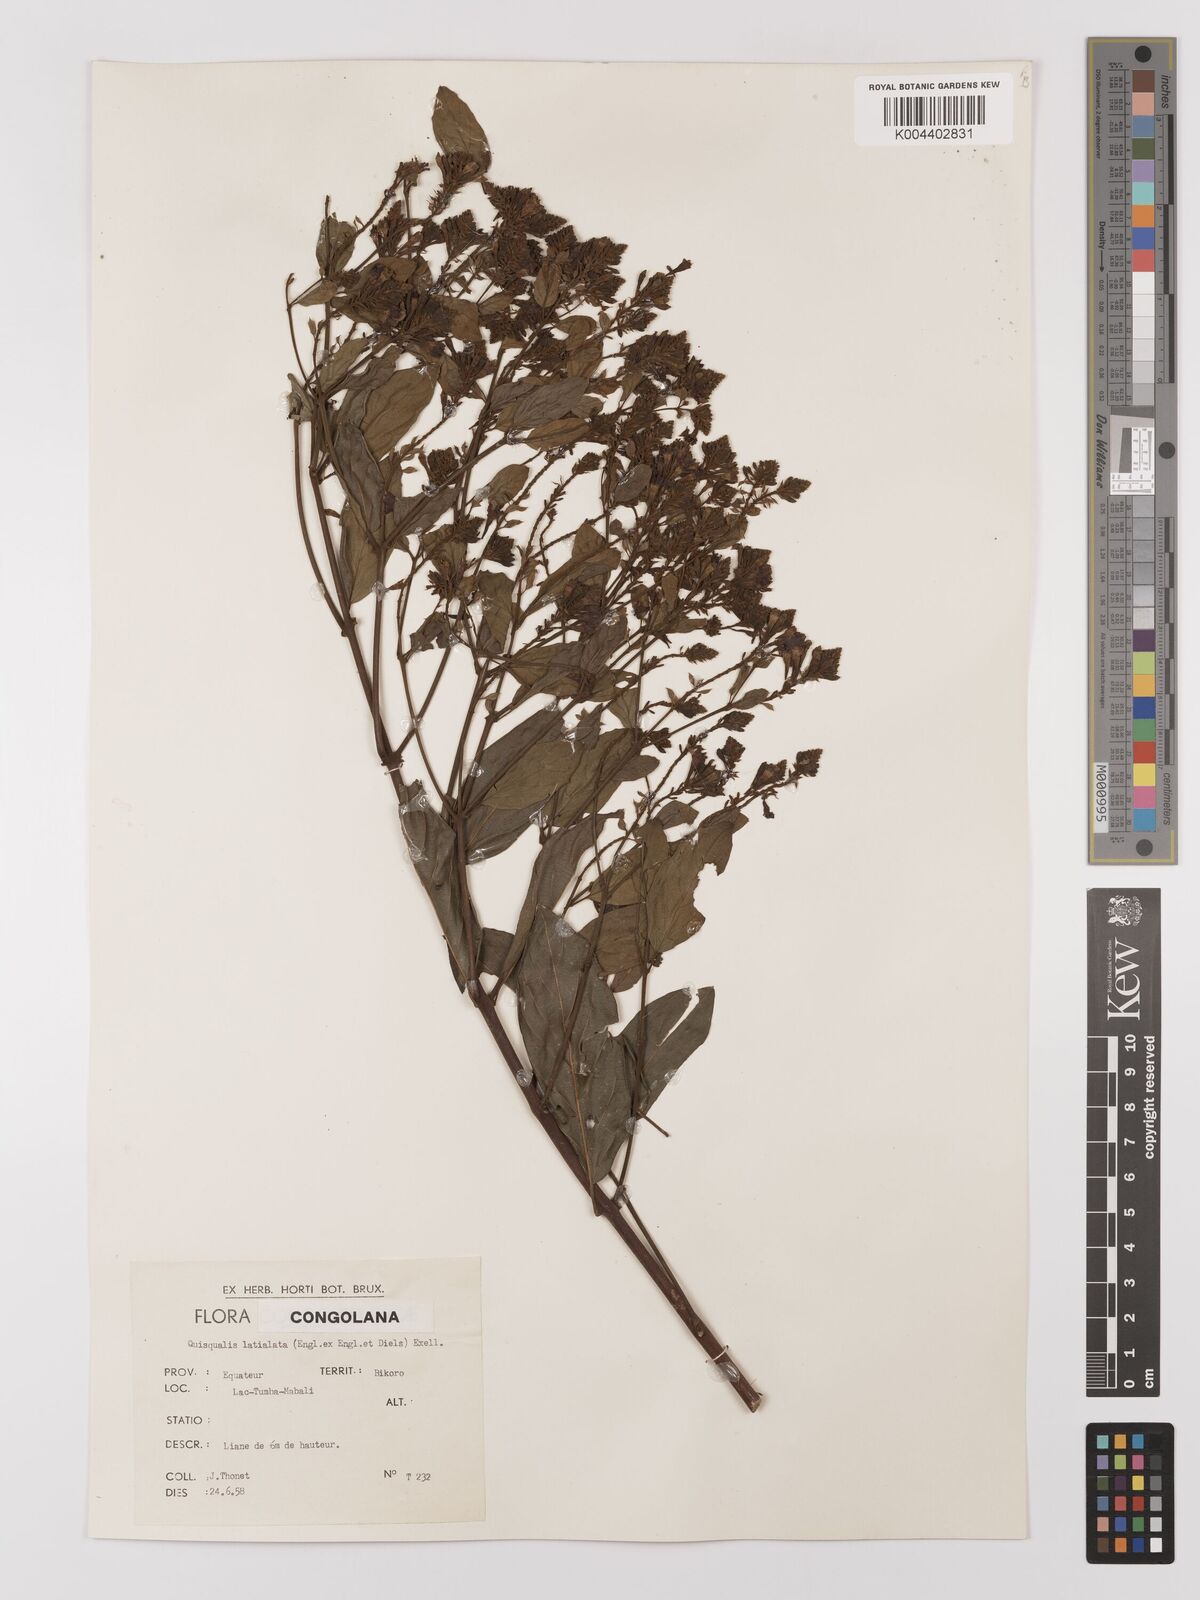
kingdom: Plantae
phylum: Tracheophyta
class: Magnoliopsida
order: Myrtales
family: Combretaceae
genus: Combretum
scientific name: Combretum latialatum
